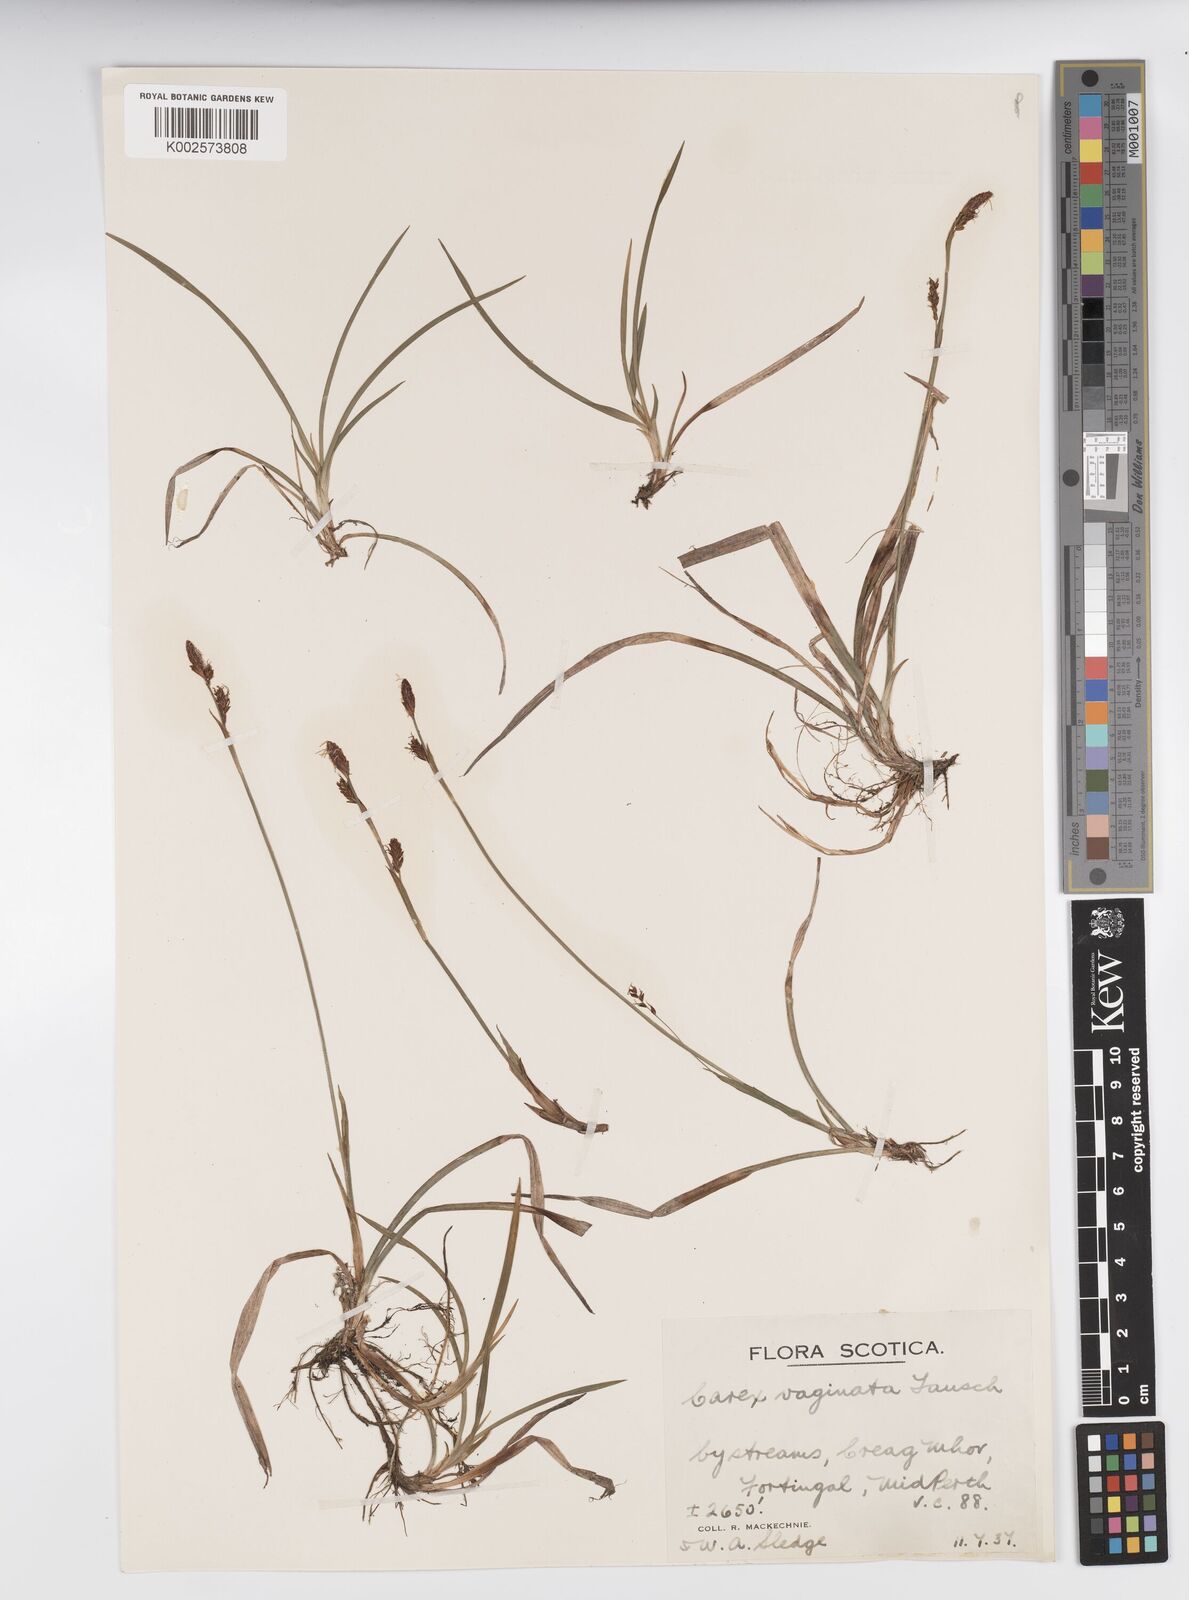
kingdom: Plantae
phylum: Tracheophyta
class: Liliopsida
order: Poales
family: Cyperaceae
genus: Carex
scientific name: Carex vaginata
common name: Sheathed sedge
